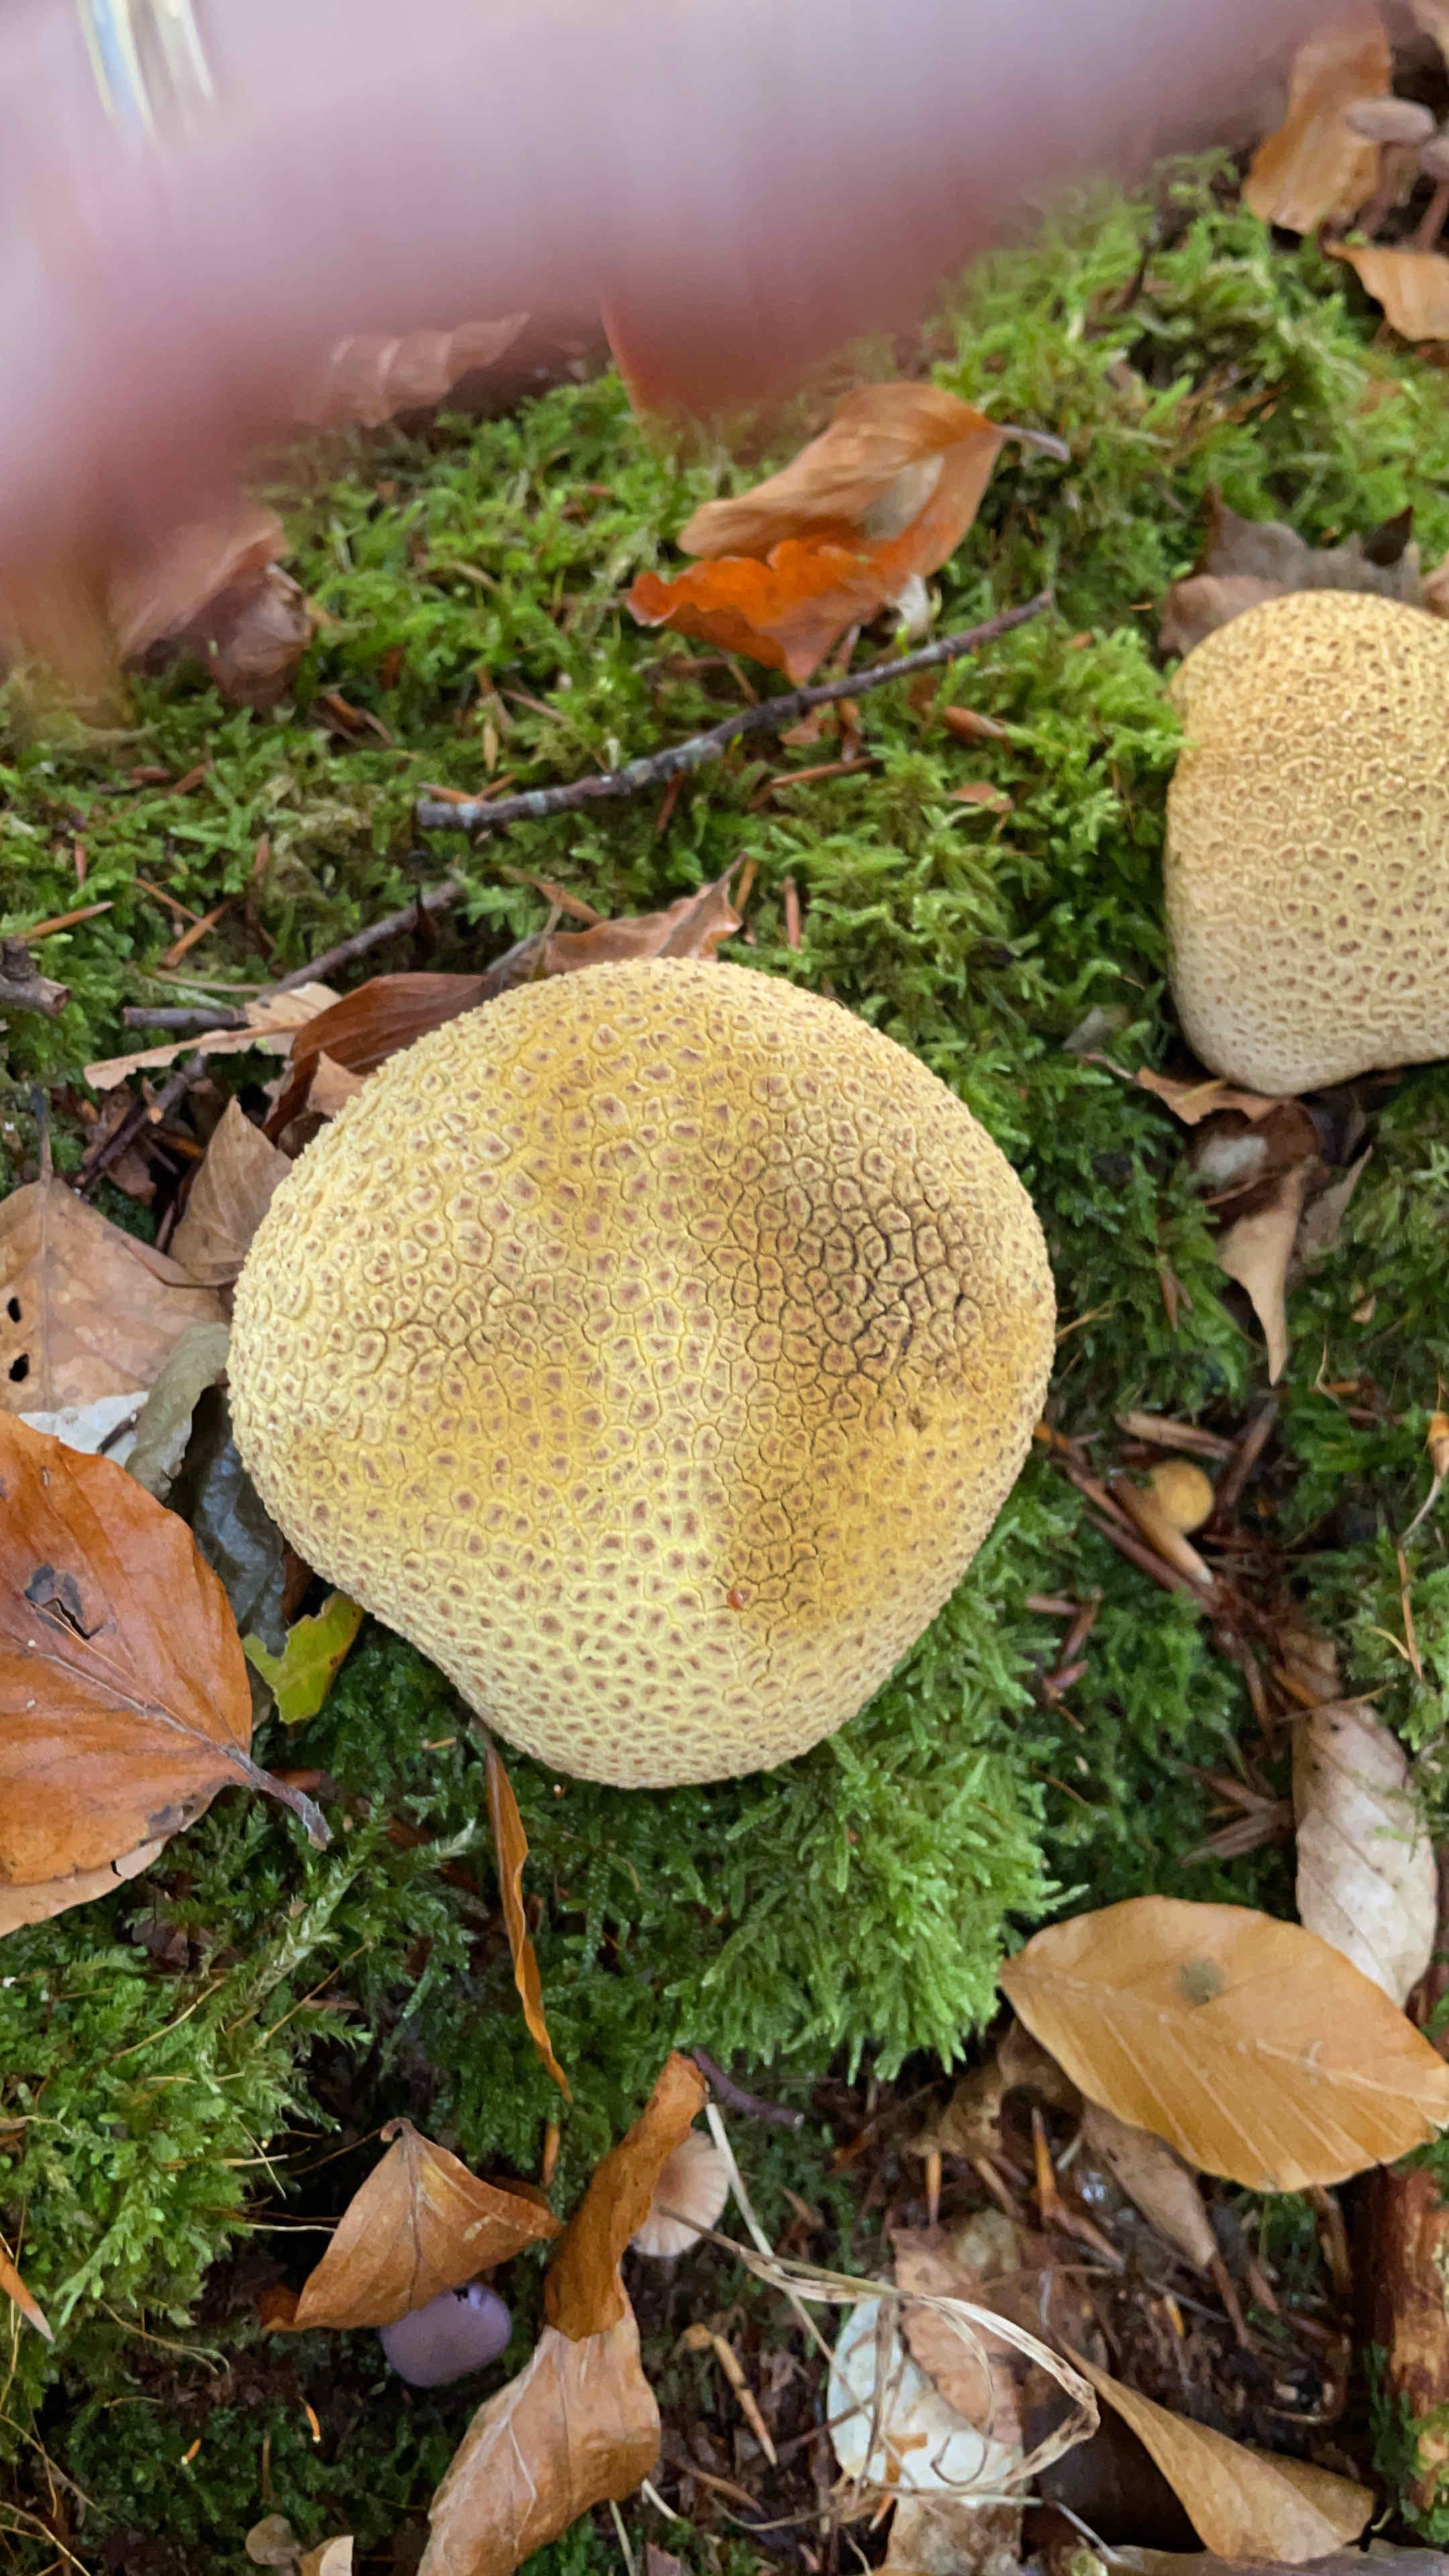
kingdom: Fungi
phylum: Basidiomycota
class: Agaricomycetes
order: Boletales
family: Sclerodermataceae
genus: Scleroderma
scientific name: Scleroderma citrinum
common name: almindelig bruskbold
